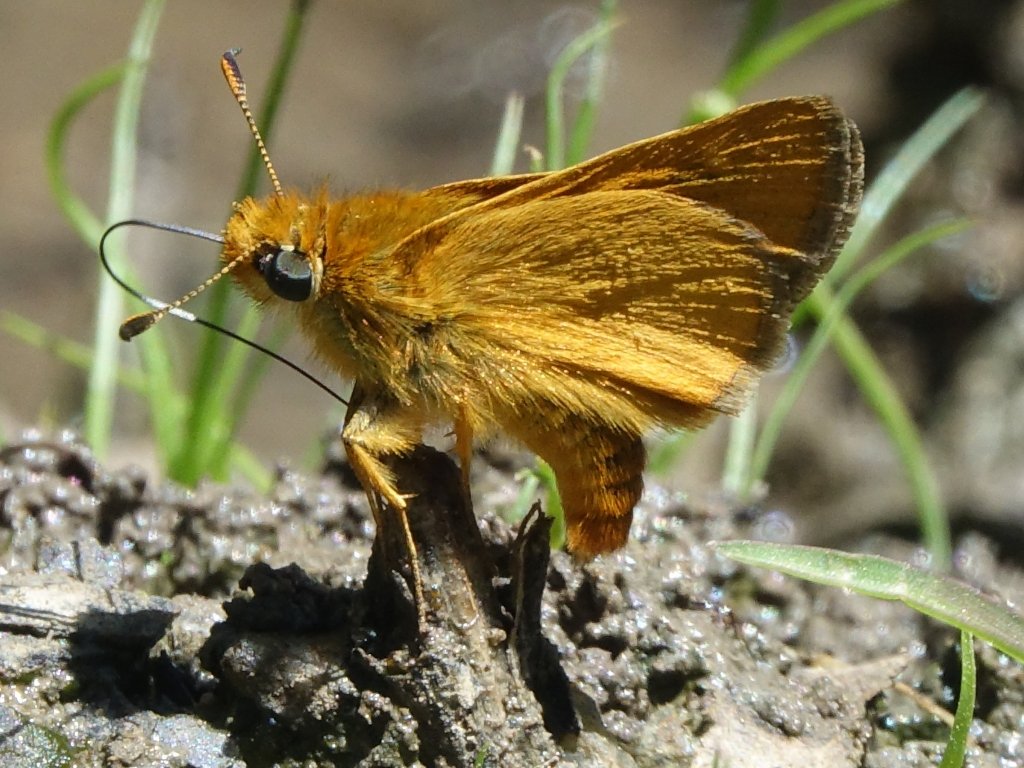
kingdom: Animalia
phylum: Arthropoda
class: Insecta
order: Lepidoptera
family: Hesperiidae
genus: Ochlodes
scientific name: Ochlodes agricola
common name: Rural Skipper
